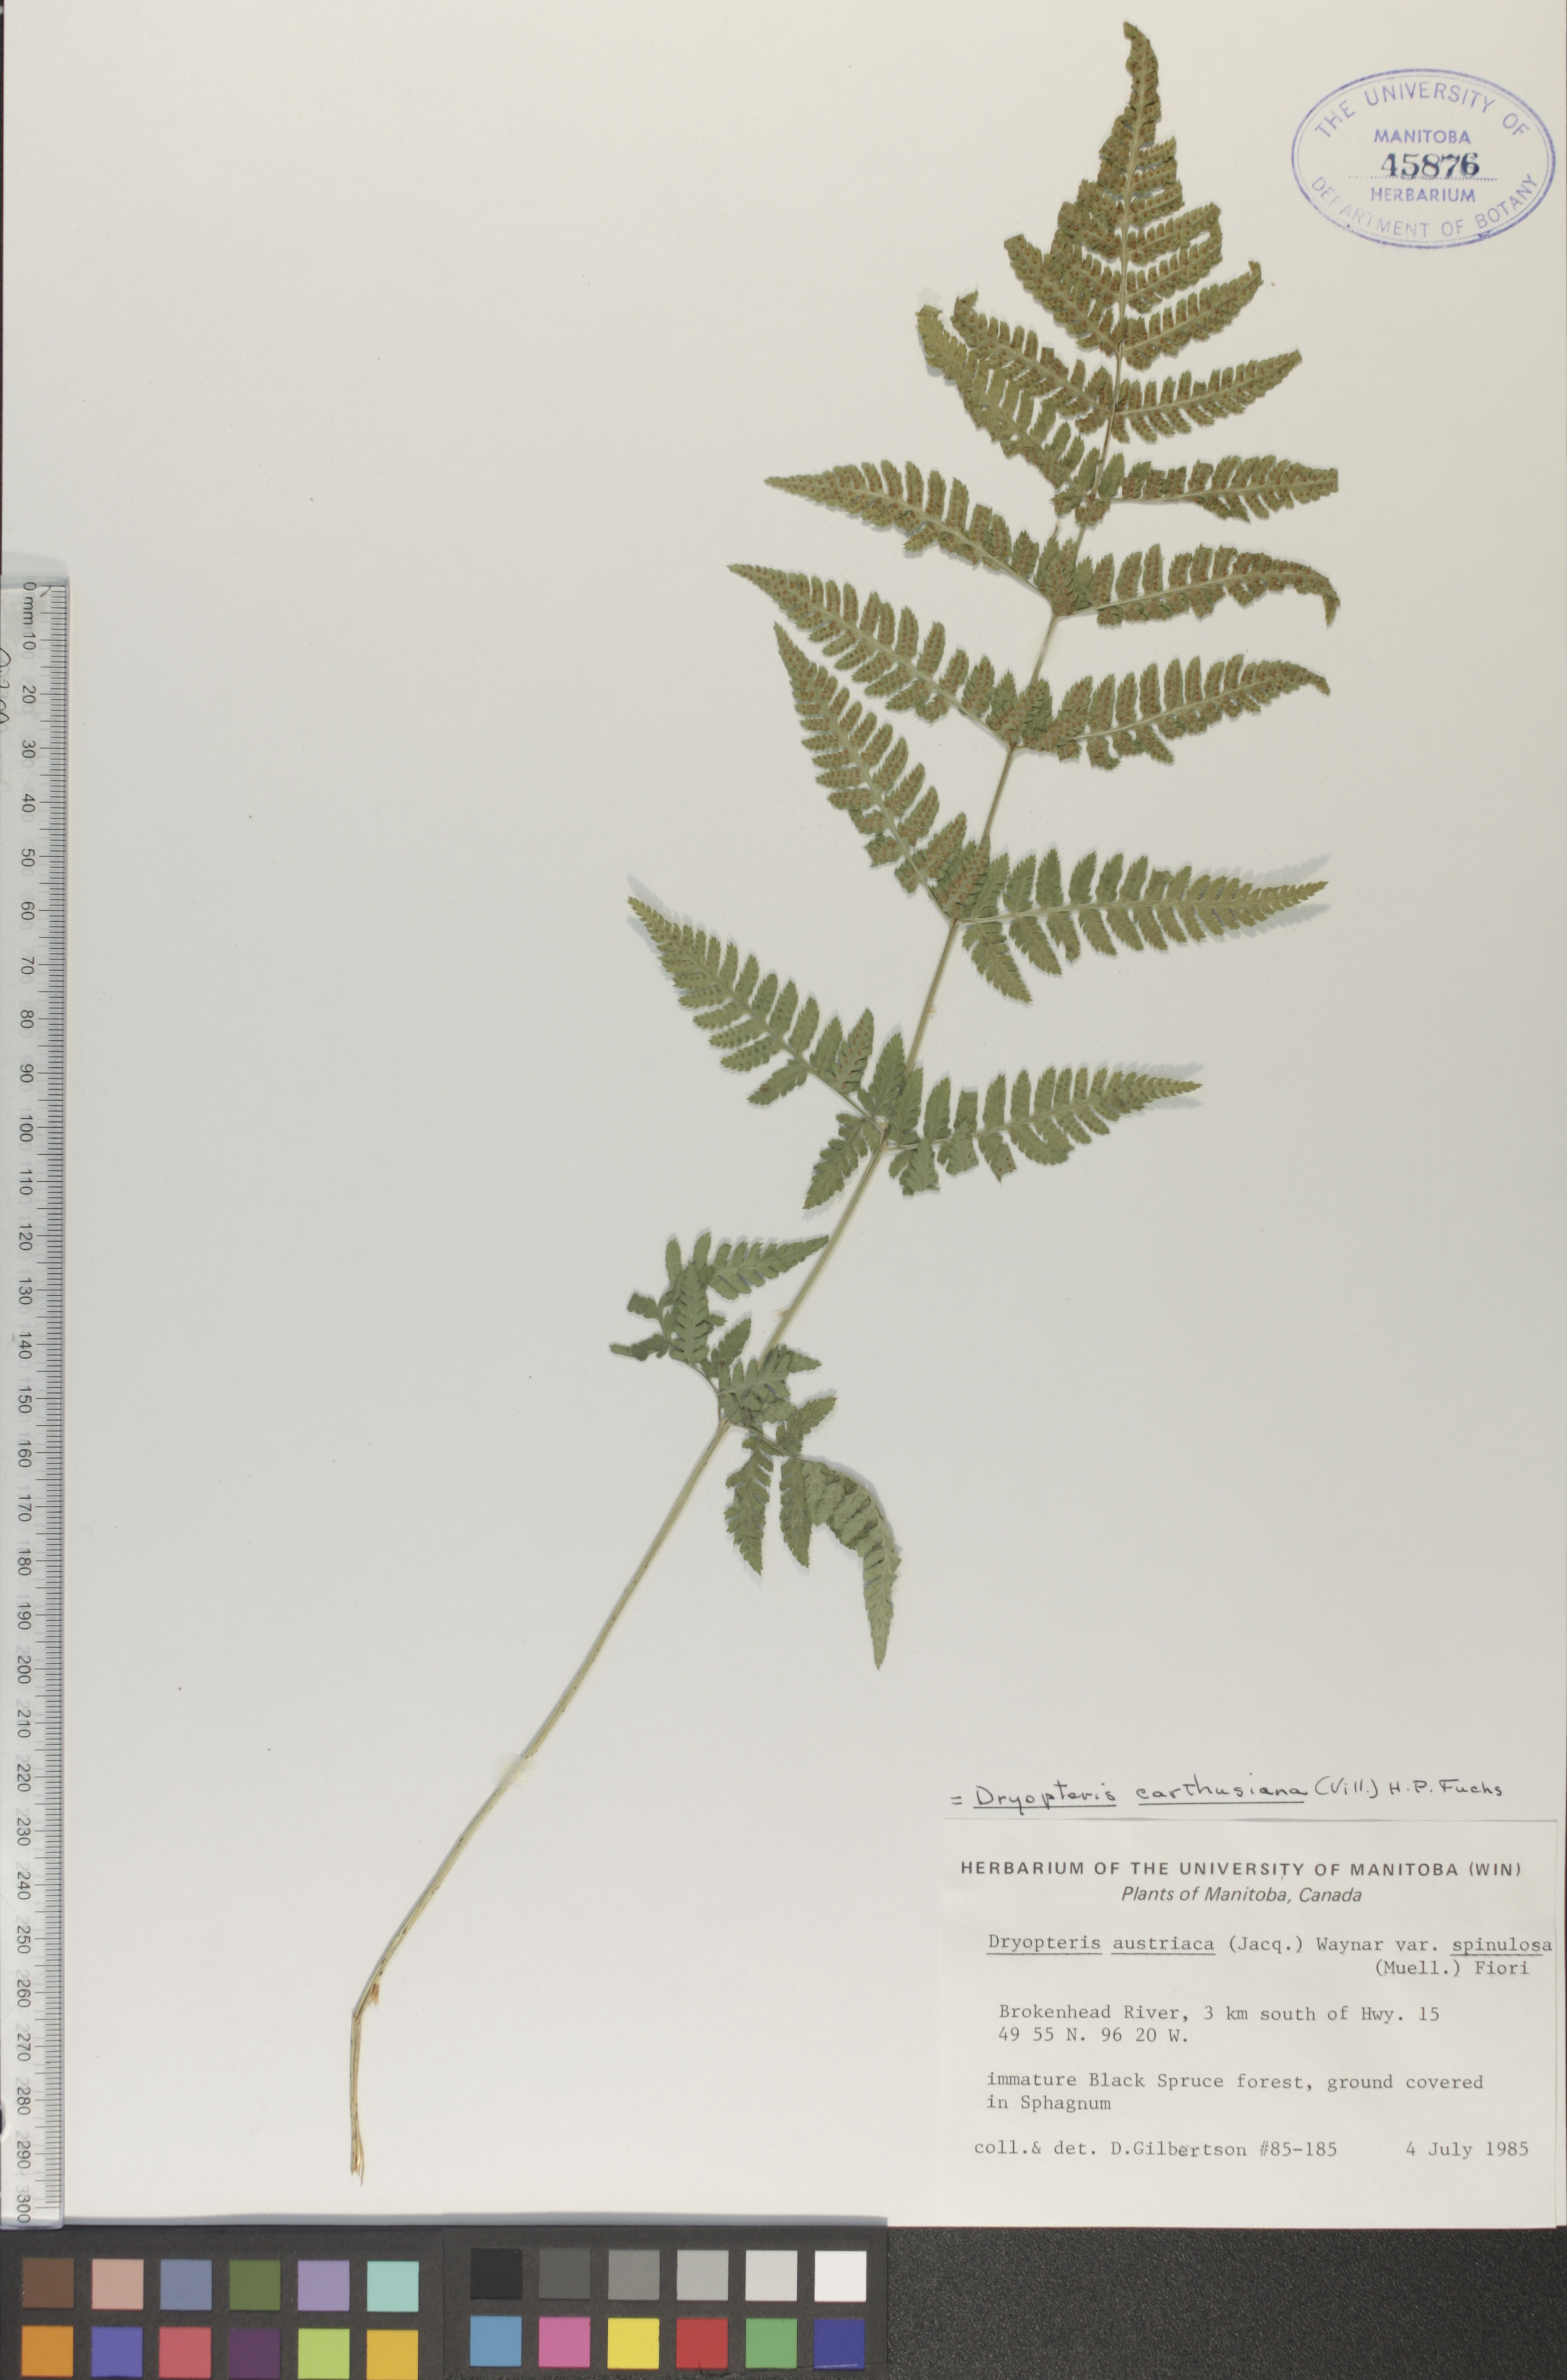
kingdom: Plantae
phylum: Tracheophyta
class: Polypodiopsida
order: Polypodiales
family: Dryopteridaceae
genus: Dryopteris
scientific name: Dryopteris carthusiana
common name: Narrow buckler-fern
